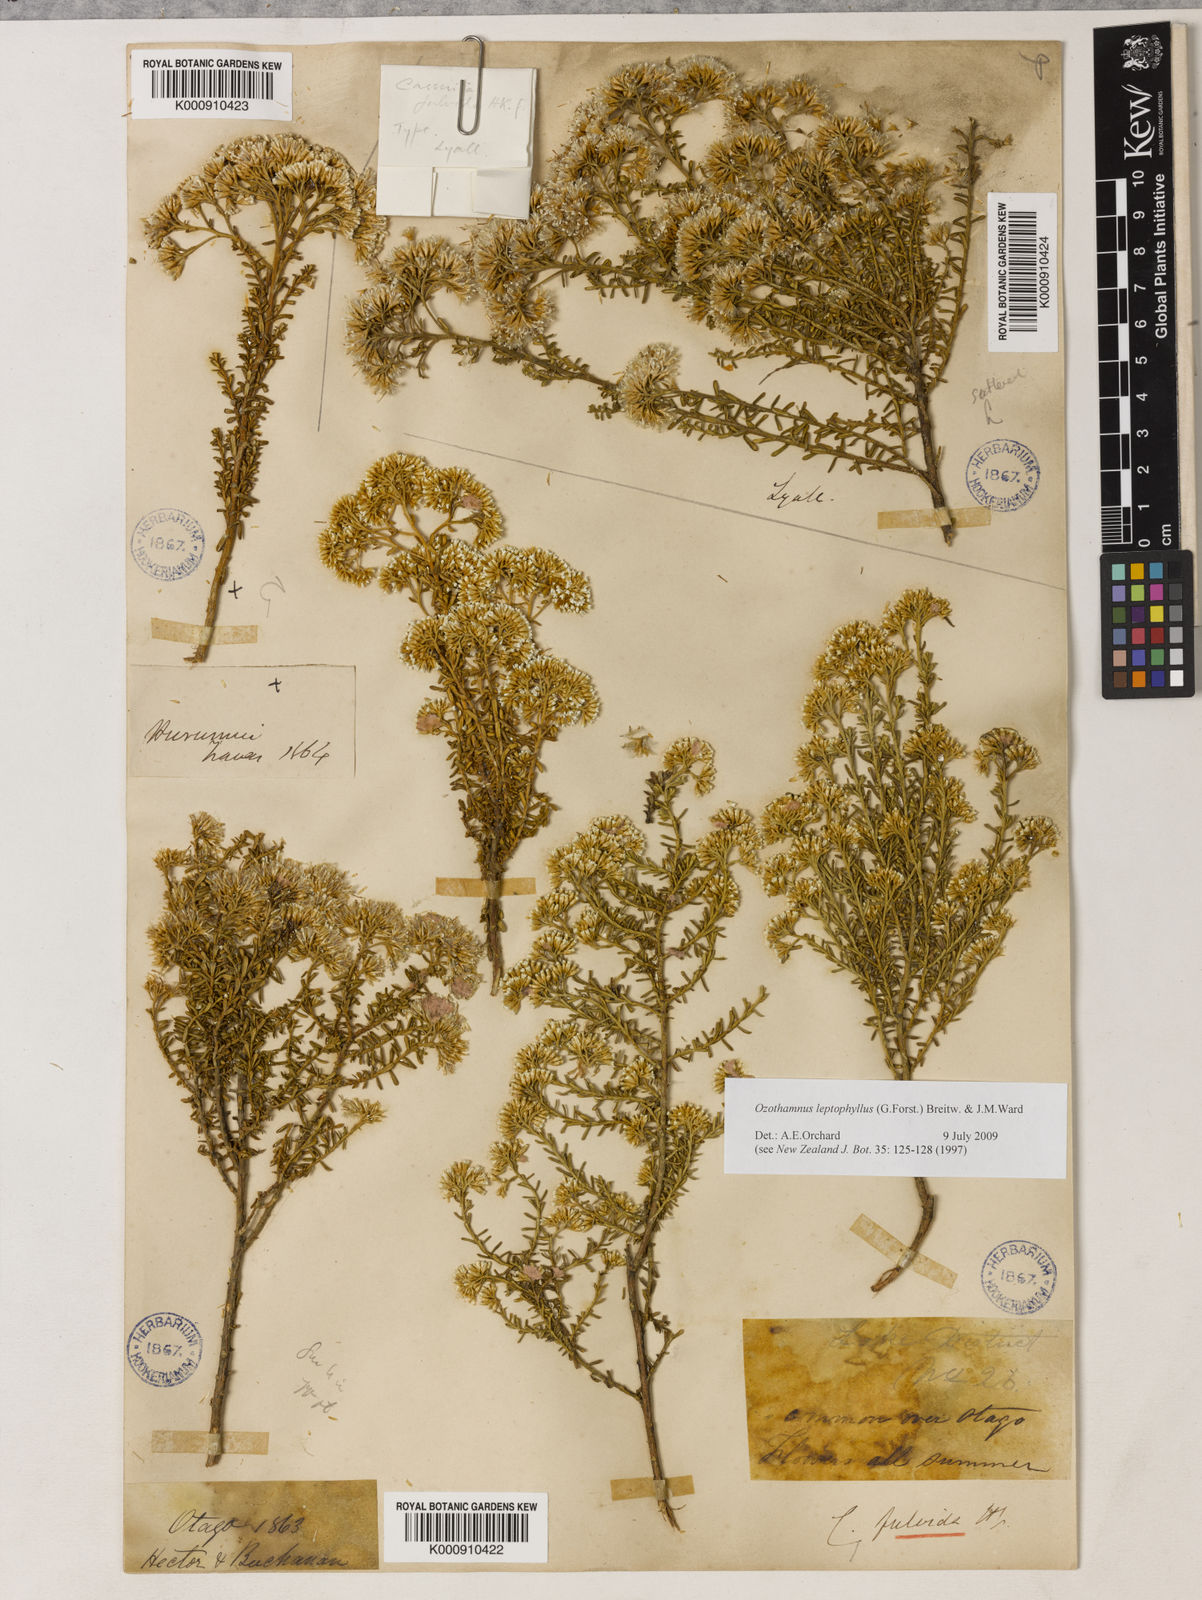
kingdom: Plantae
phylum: Tracheophyta
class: Magnoliopsida
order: Asterales
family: Asteraceae
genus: Ozothamnus
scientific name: Ozothamnus leptophyllus
